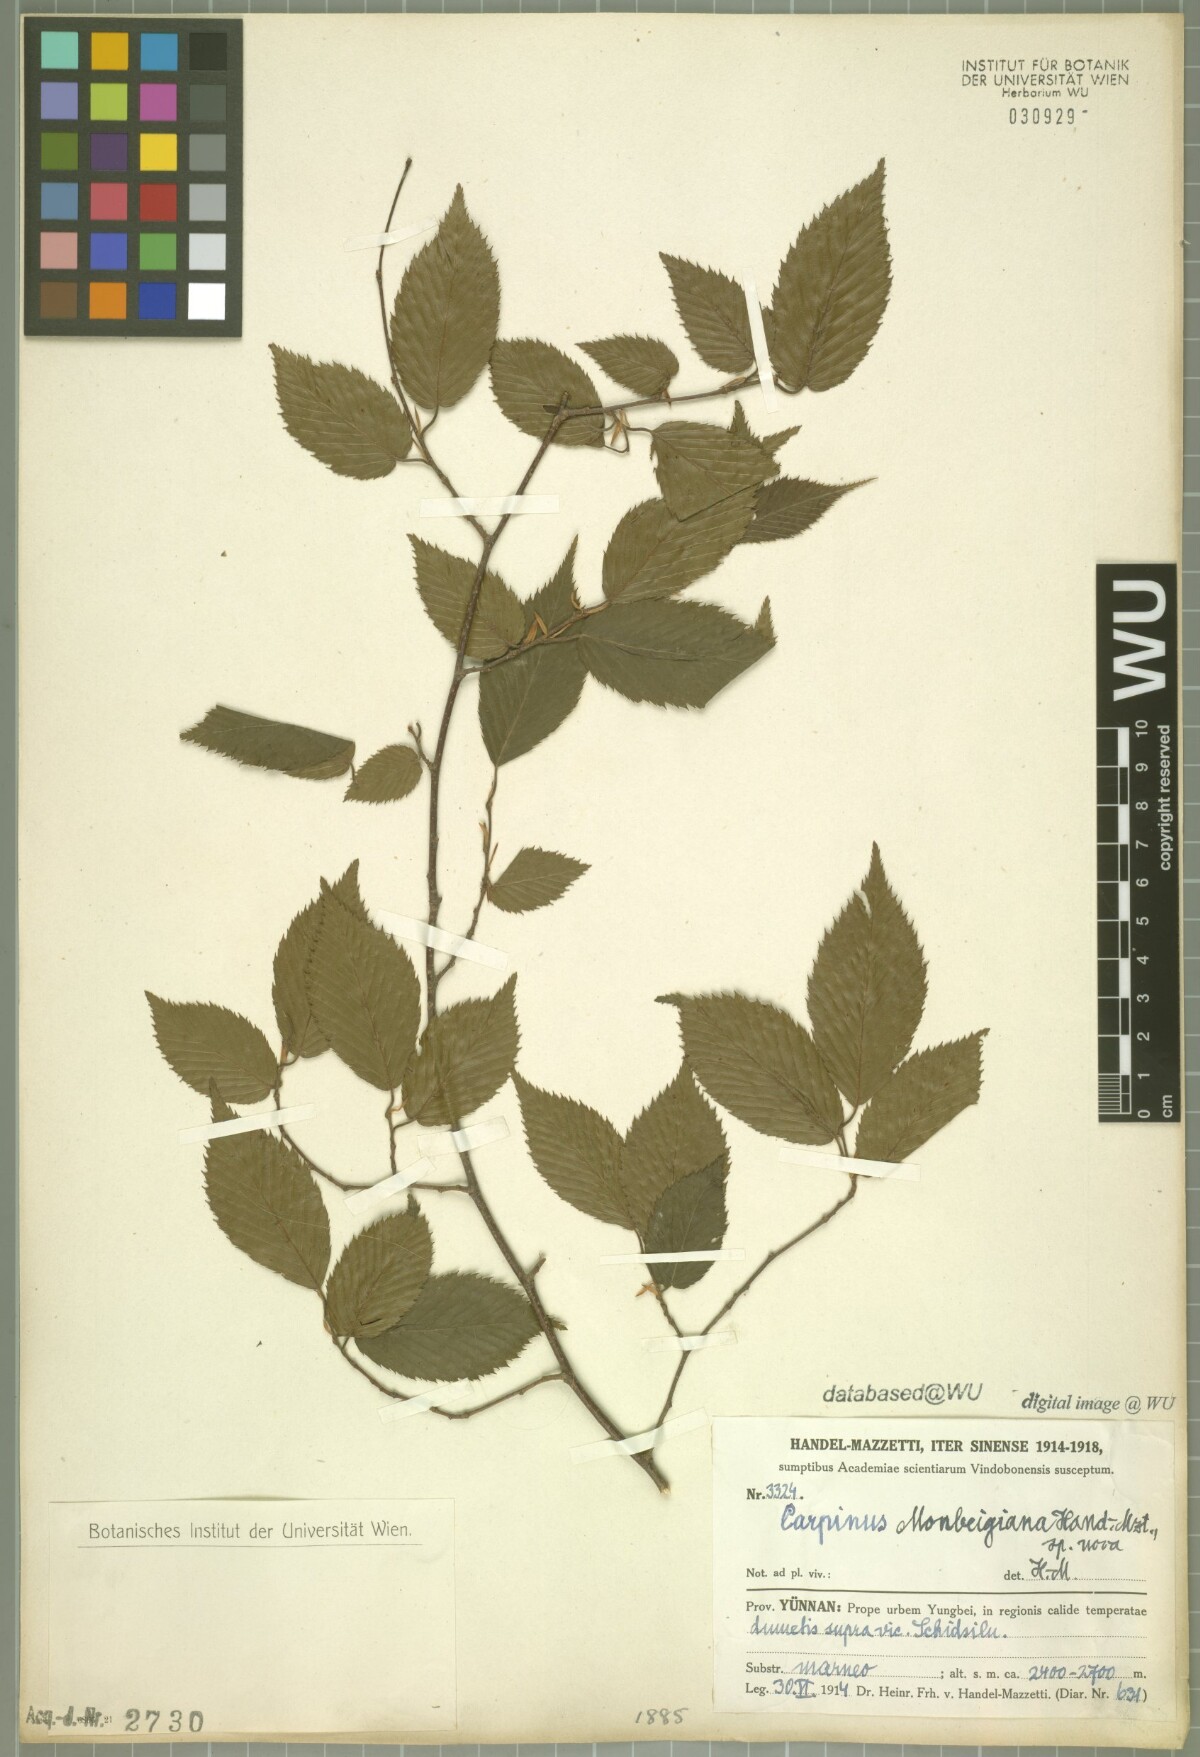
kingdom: Plantae
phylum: Tracheophyta
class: Magnoliopsida
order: Fagales
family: Betulaceae
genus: Carpinus
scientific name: Carpinus monbeigiana
